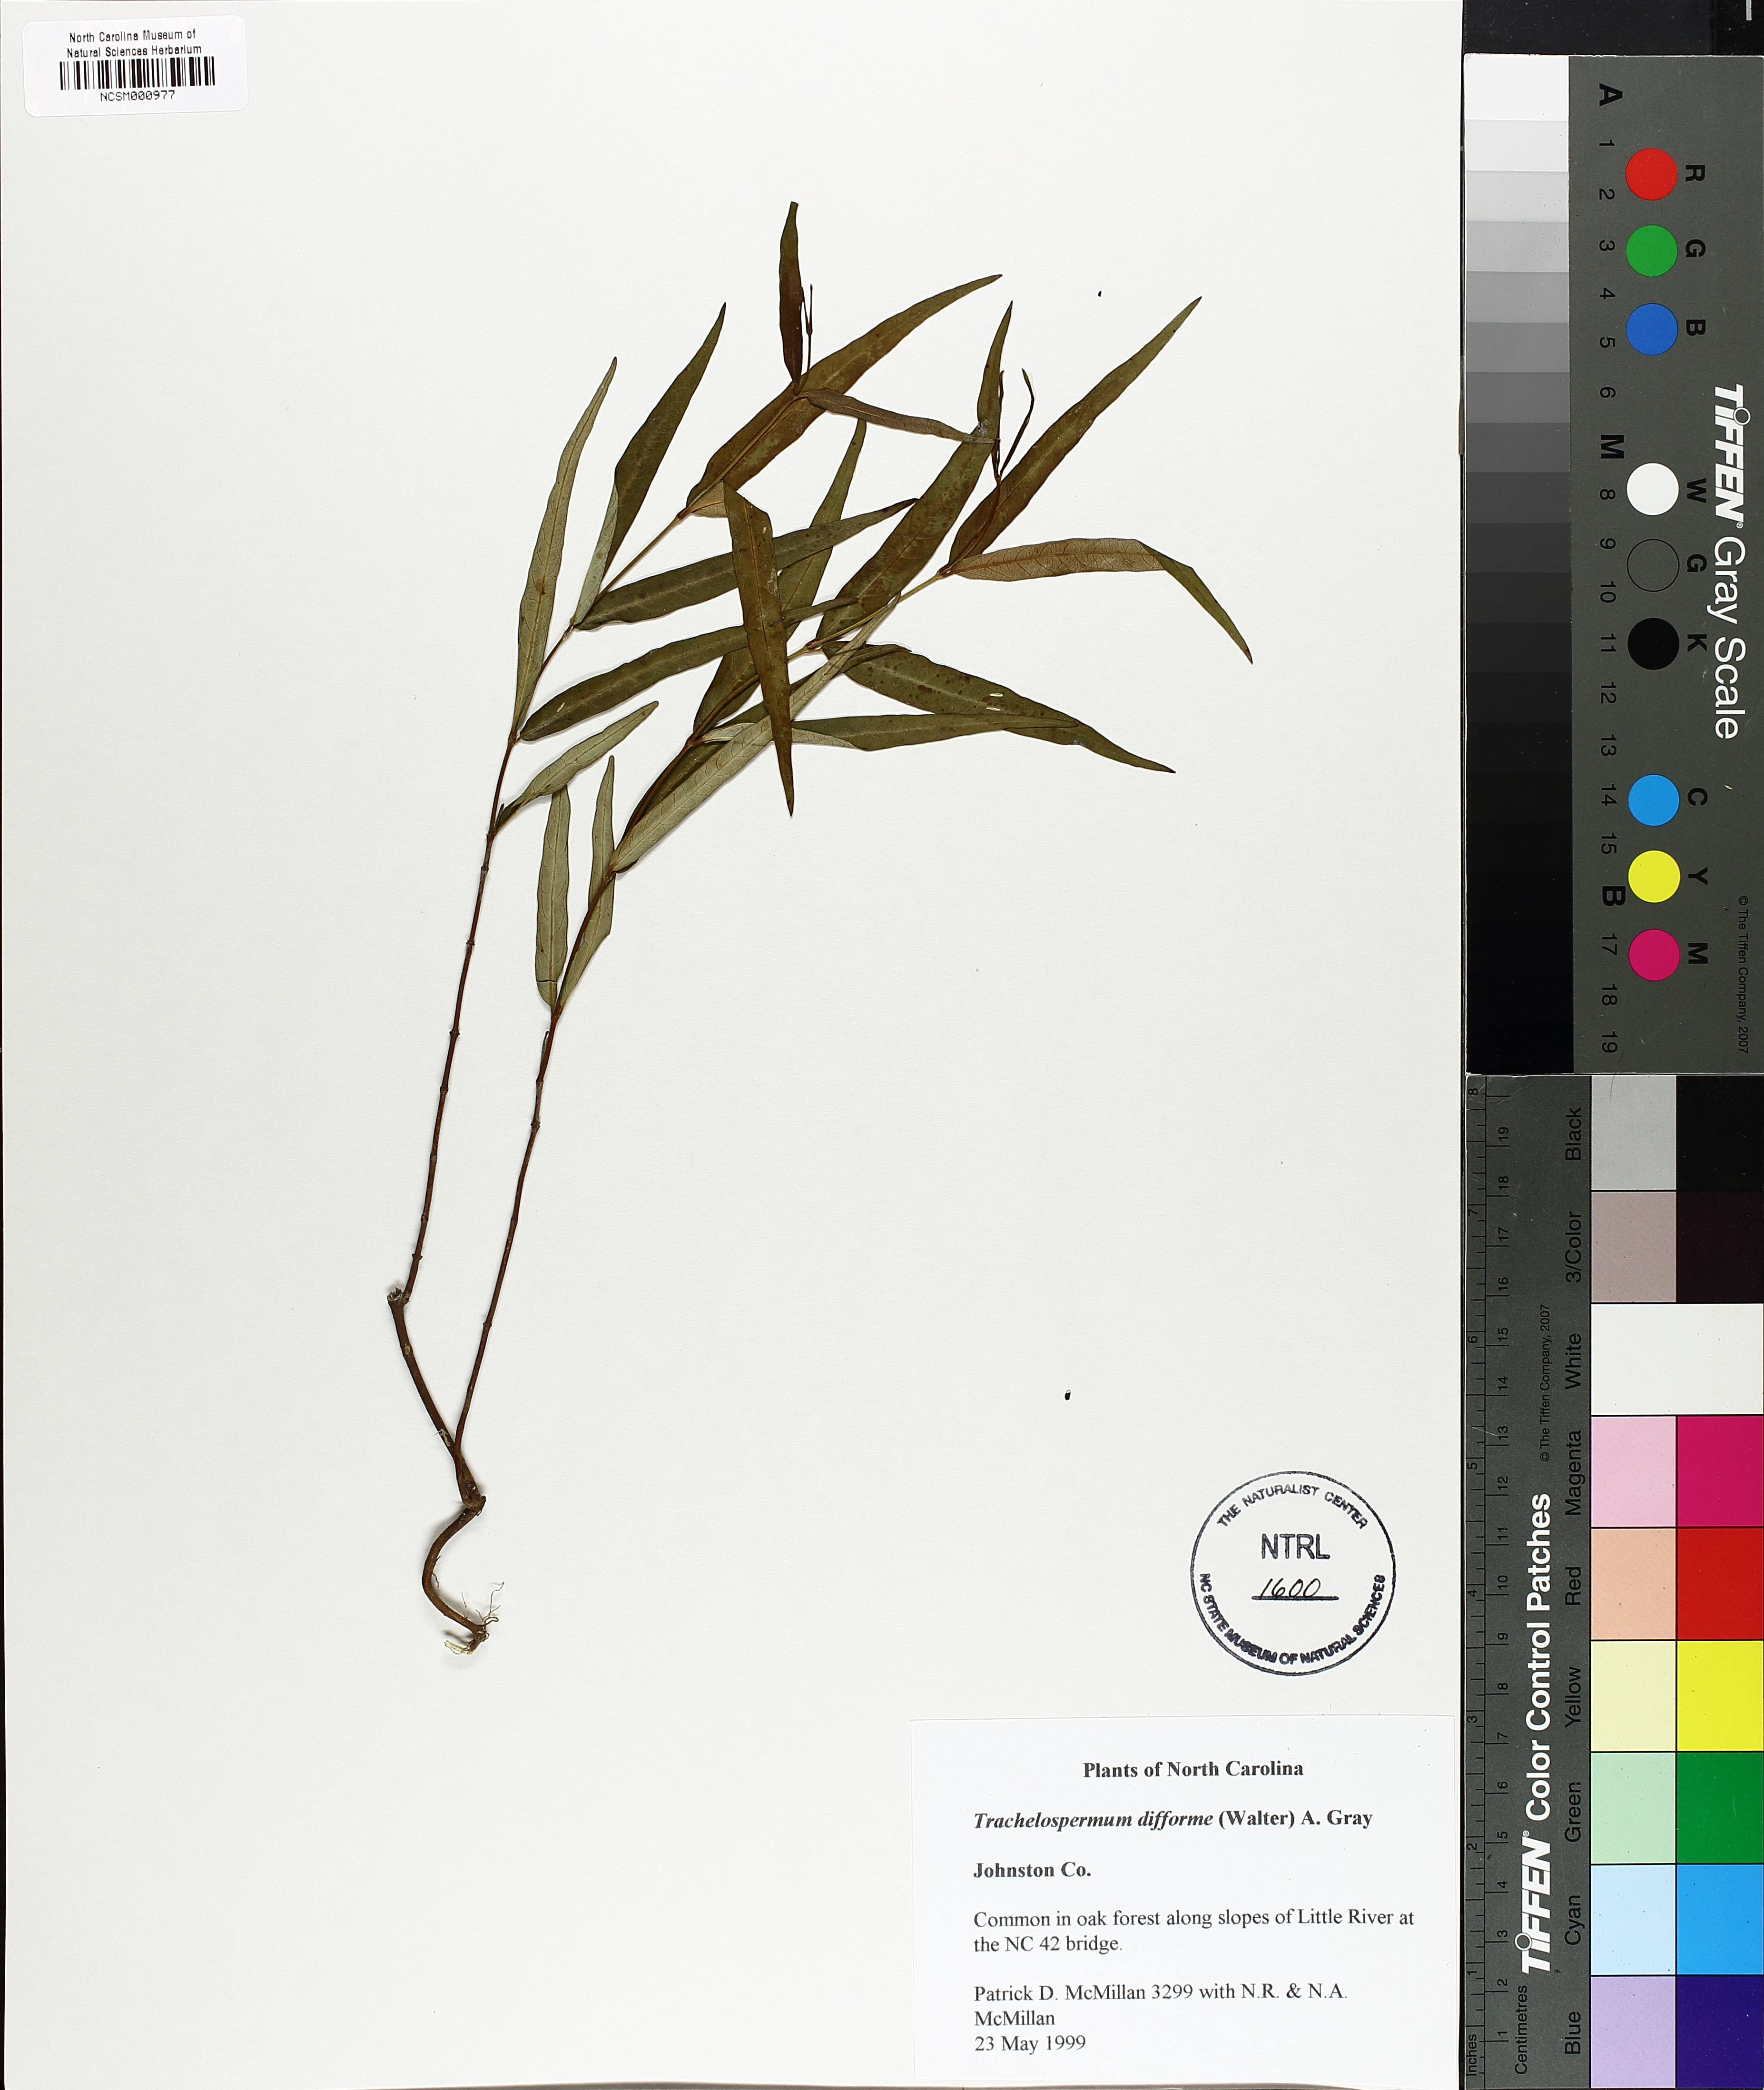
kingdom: Plantae
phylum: Tracheophyta
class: Magnoliopsida
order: Gentianales
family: Apocynaceae
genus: Thyrsanthella
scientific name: Thyrsanthella difformis
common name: Climbing dogbane
